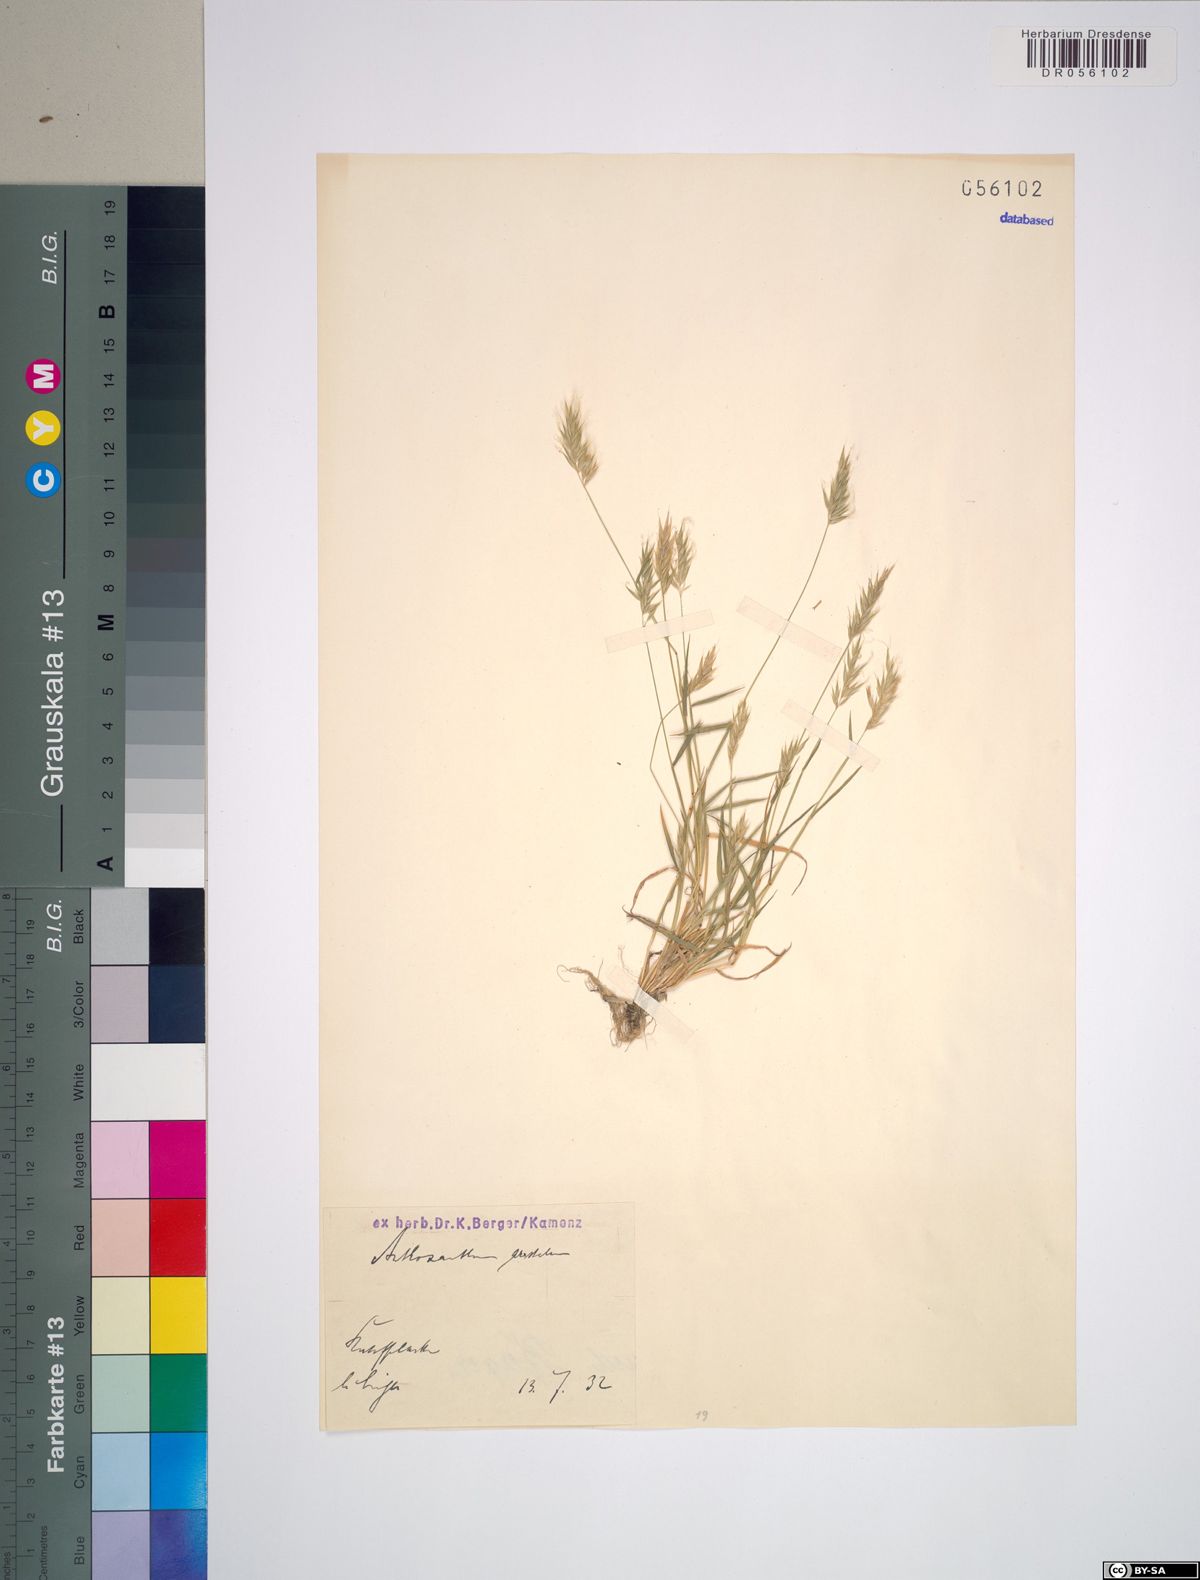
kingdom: Plantae
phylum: Tracheophyta
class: Liliopsida
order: Poales
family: Poaceae
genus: Anthoxanthum
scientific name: Anthoxanthum aristatum
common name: Annual vernal-grass
